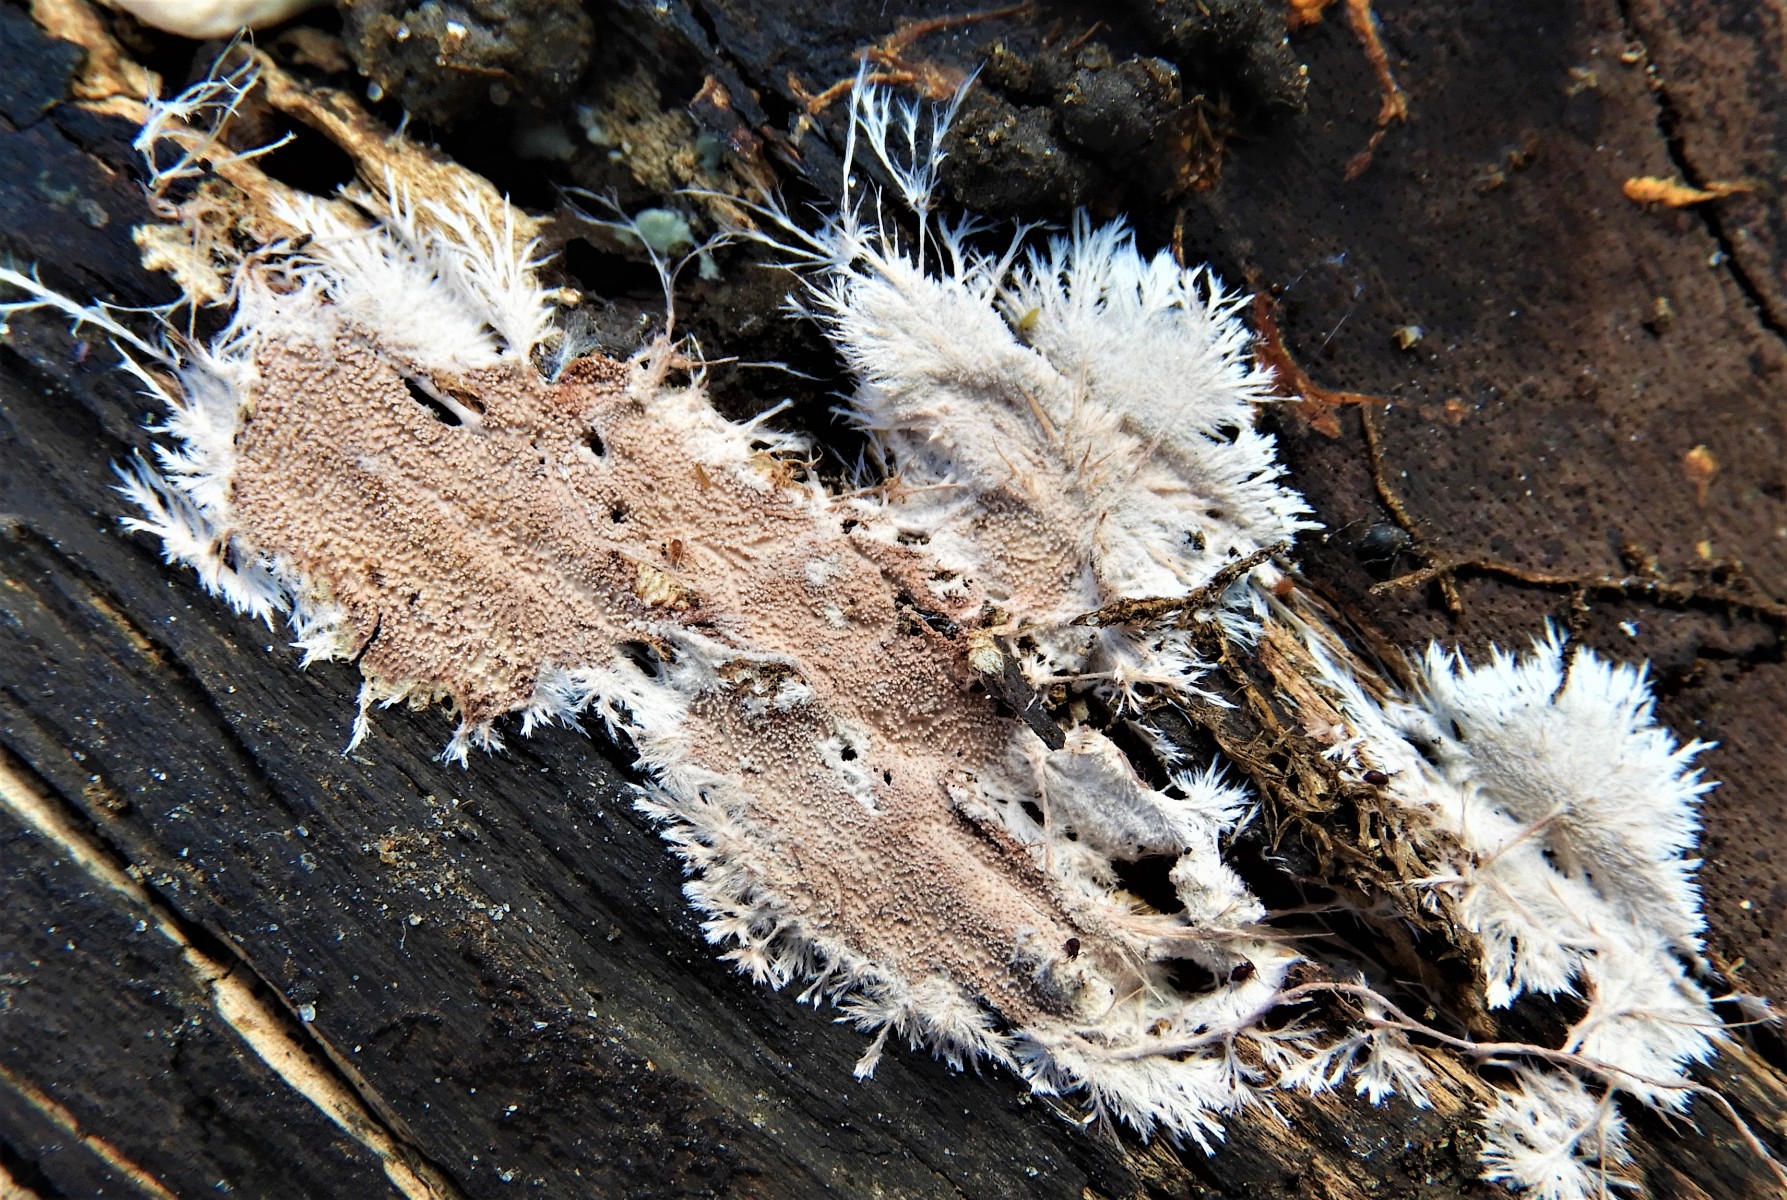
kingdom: Fungi
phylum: Basidiomycota
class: Agaricomycetes
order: Polyporales
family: Steccherinaceae
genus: Steccherinum
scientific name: Steccherinum fimbriatum
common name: trådet skønpig
